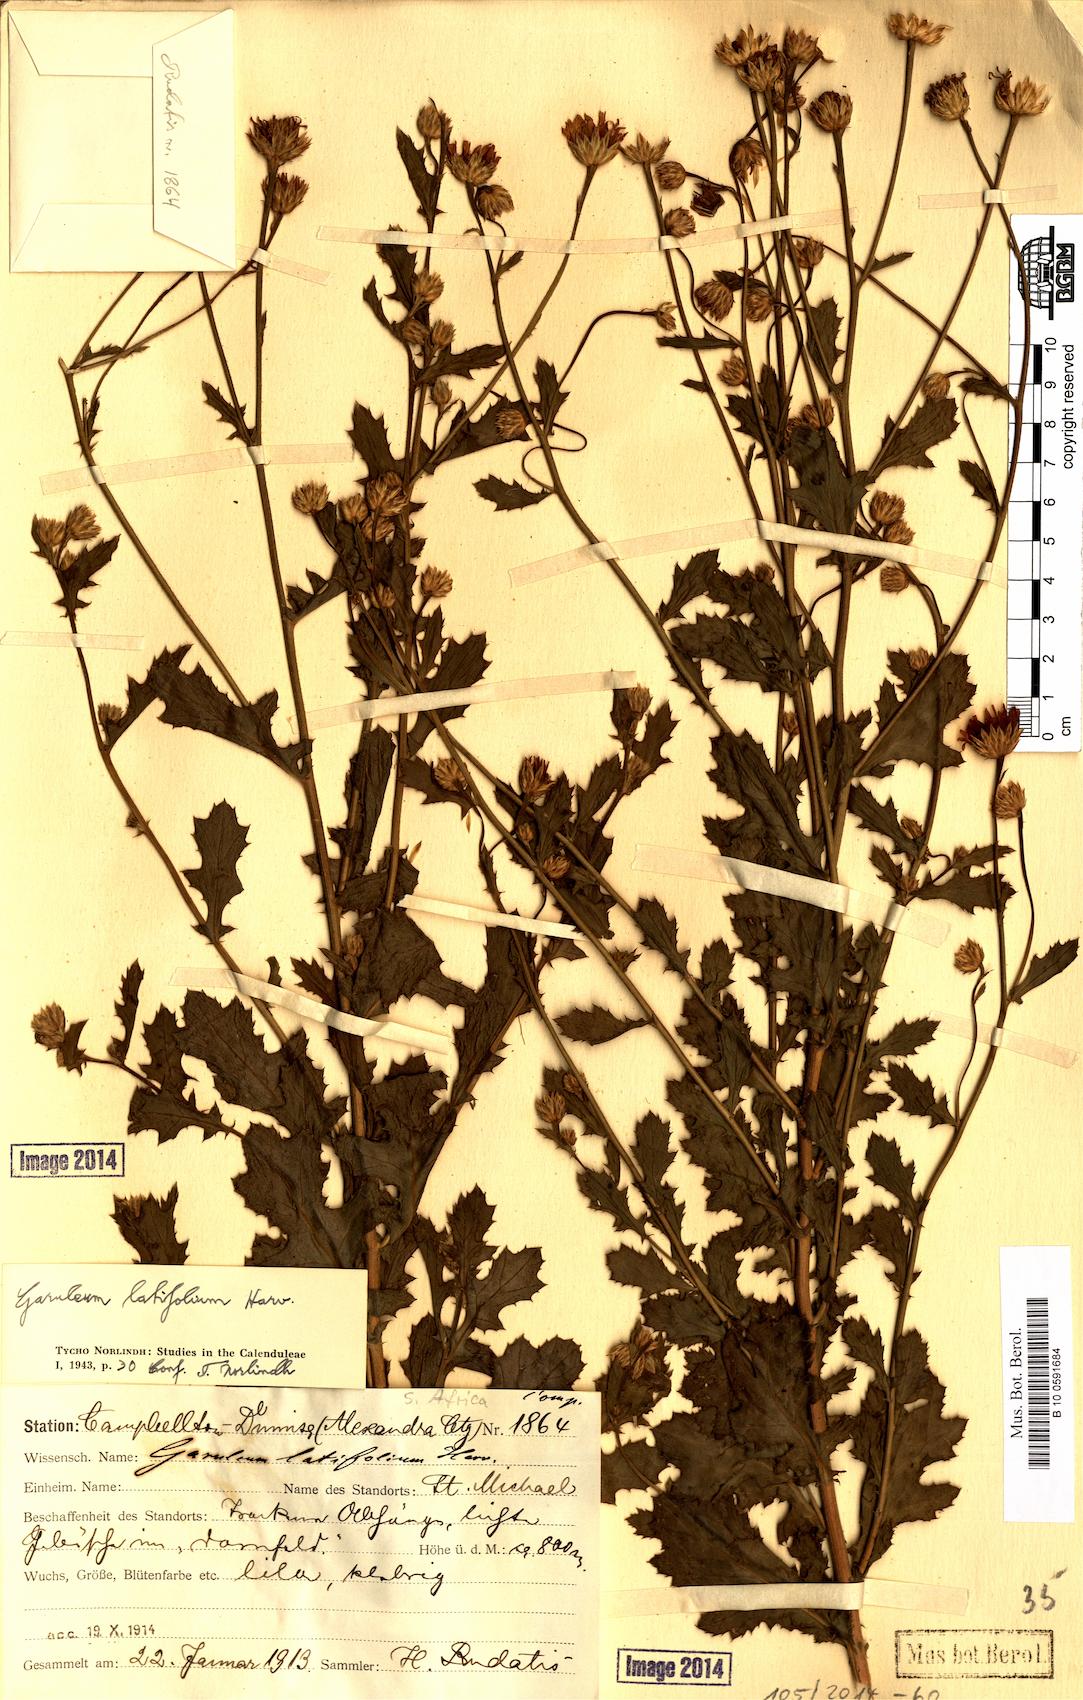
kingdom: Plantae
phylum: Tracheophyta
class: Magnoliopsida
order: Asterales
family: Asteraceae
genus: Garuleum
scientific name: Garuleum latifolium
